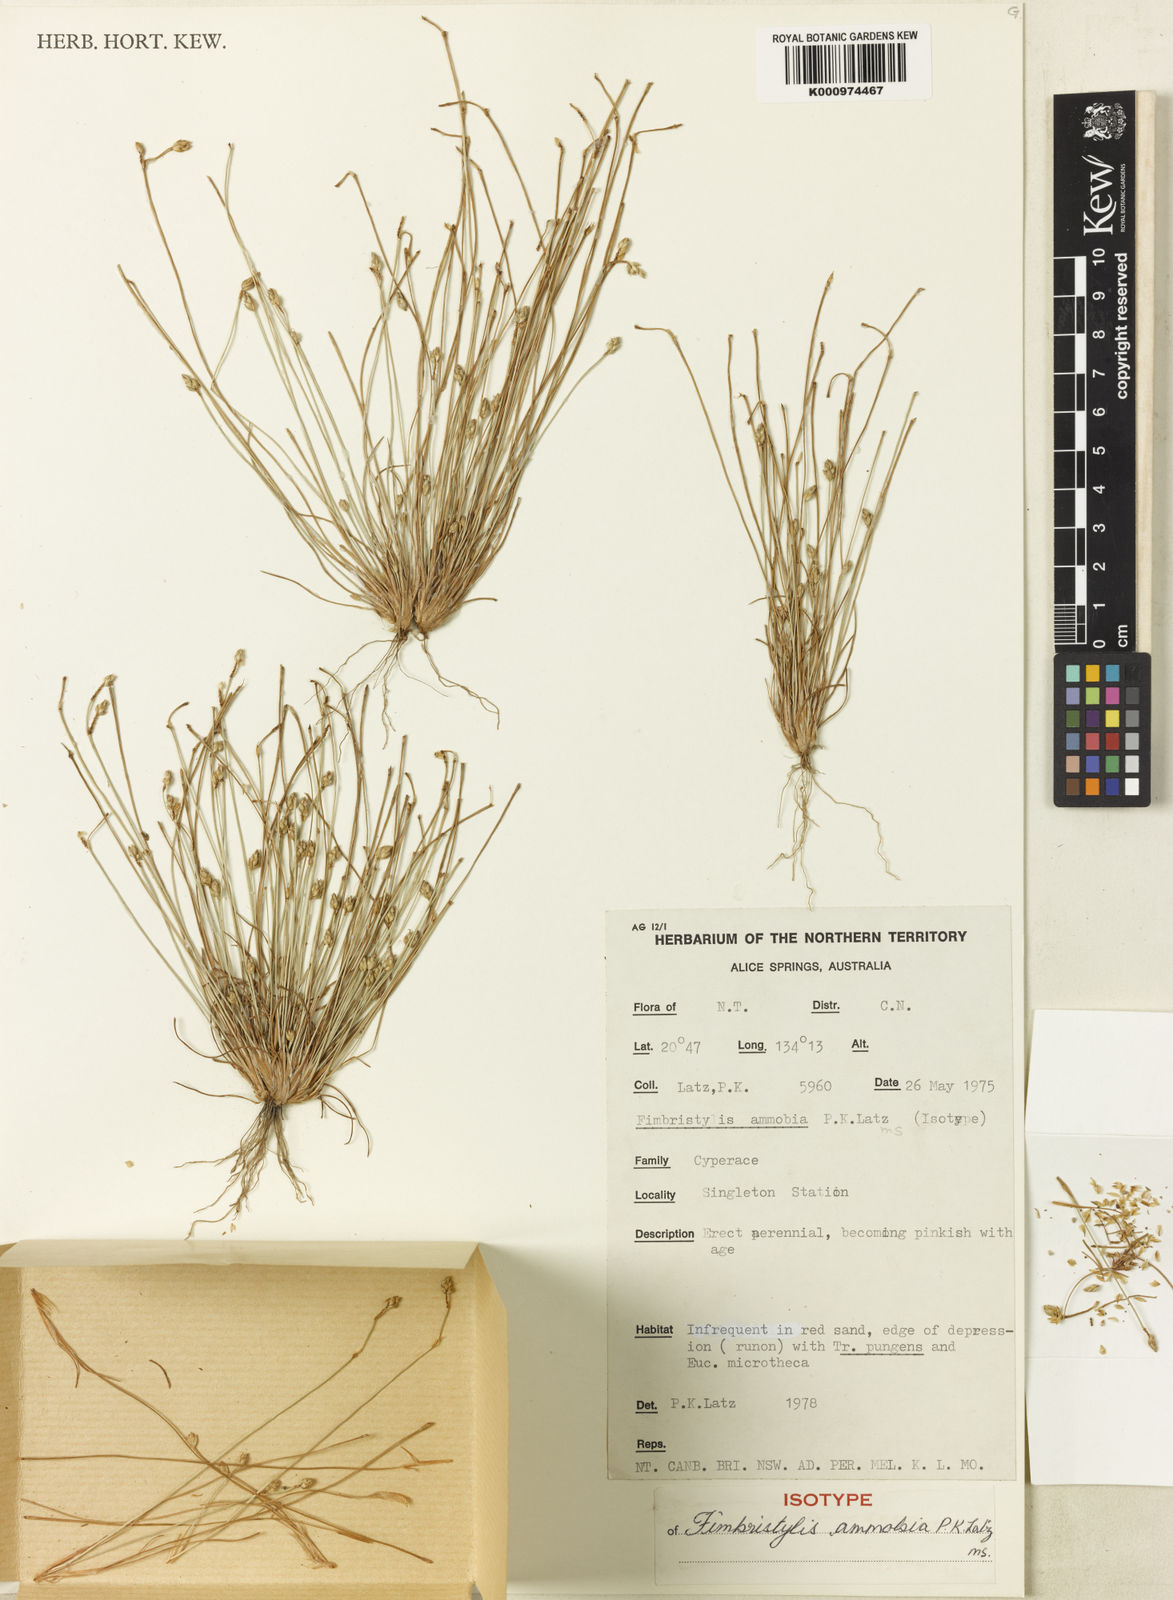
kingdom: Plantae
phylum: Tracheophyta
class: Liliopsida
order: Poales
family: Cyperaceae
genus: Fimbristylis
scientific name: Fimbristylis ammobia
